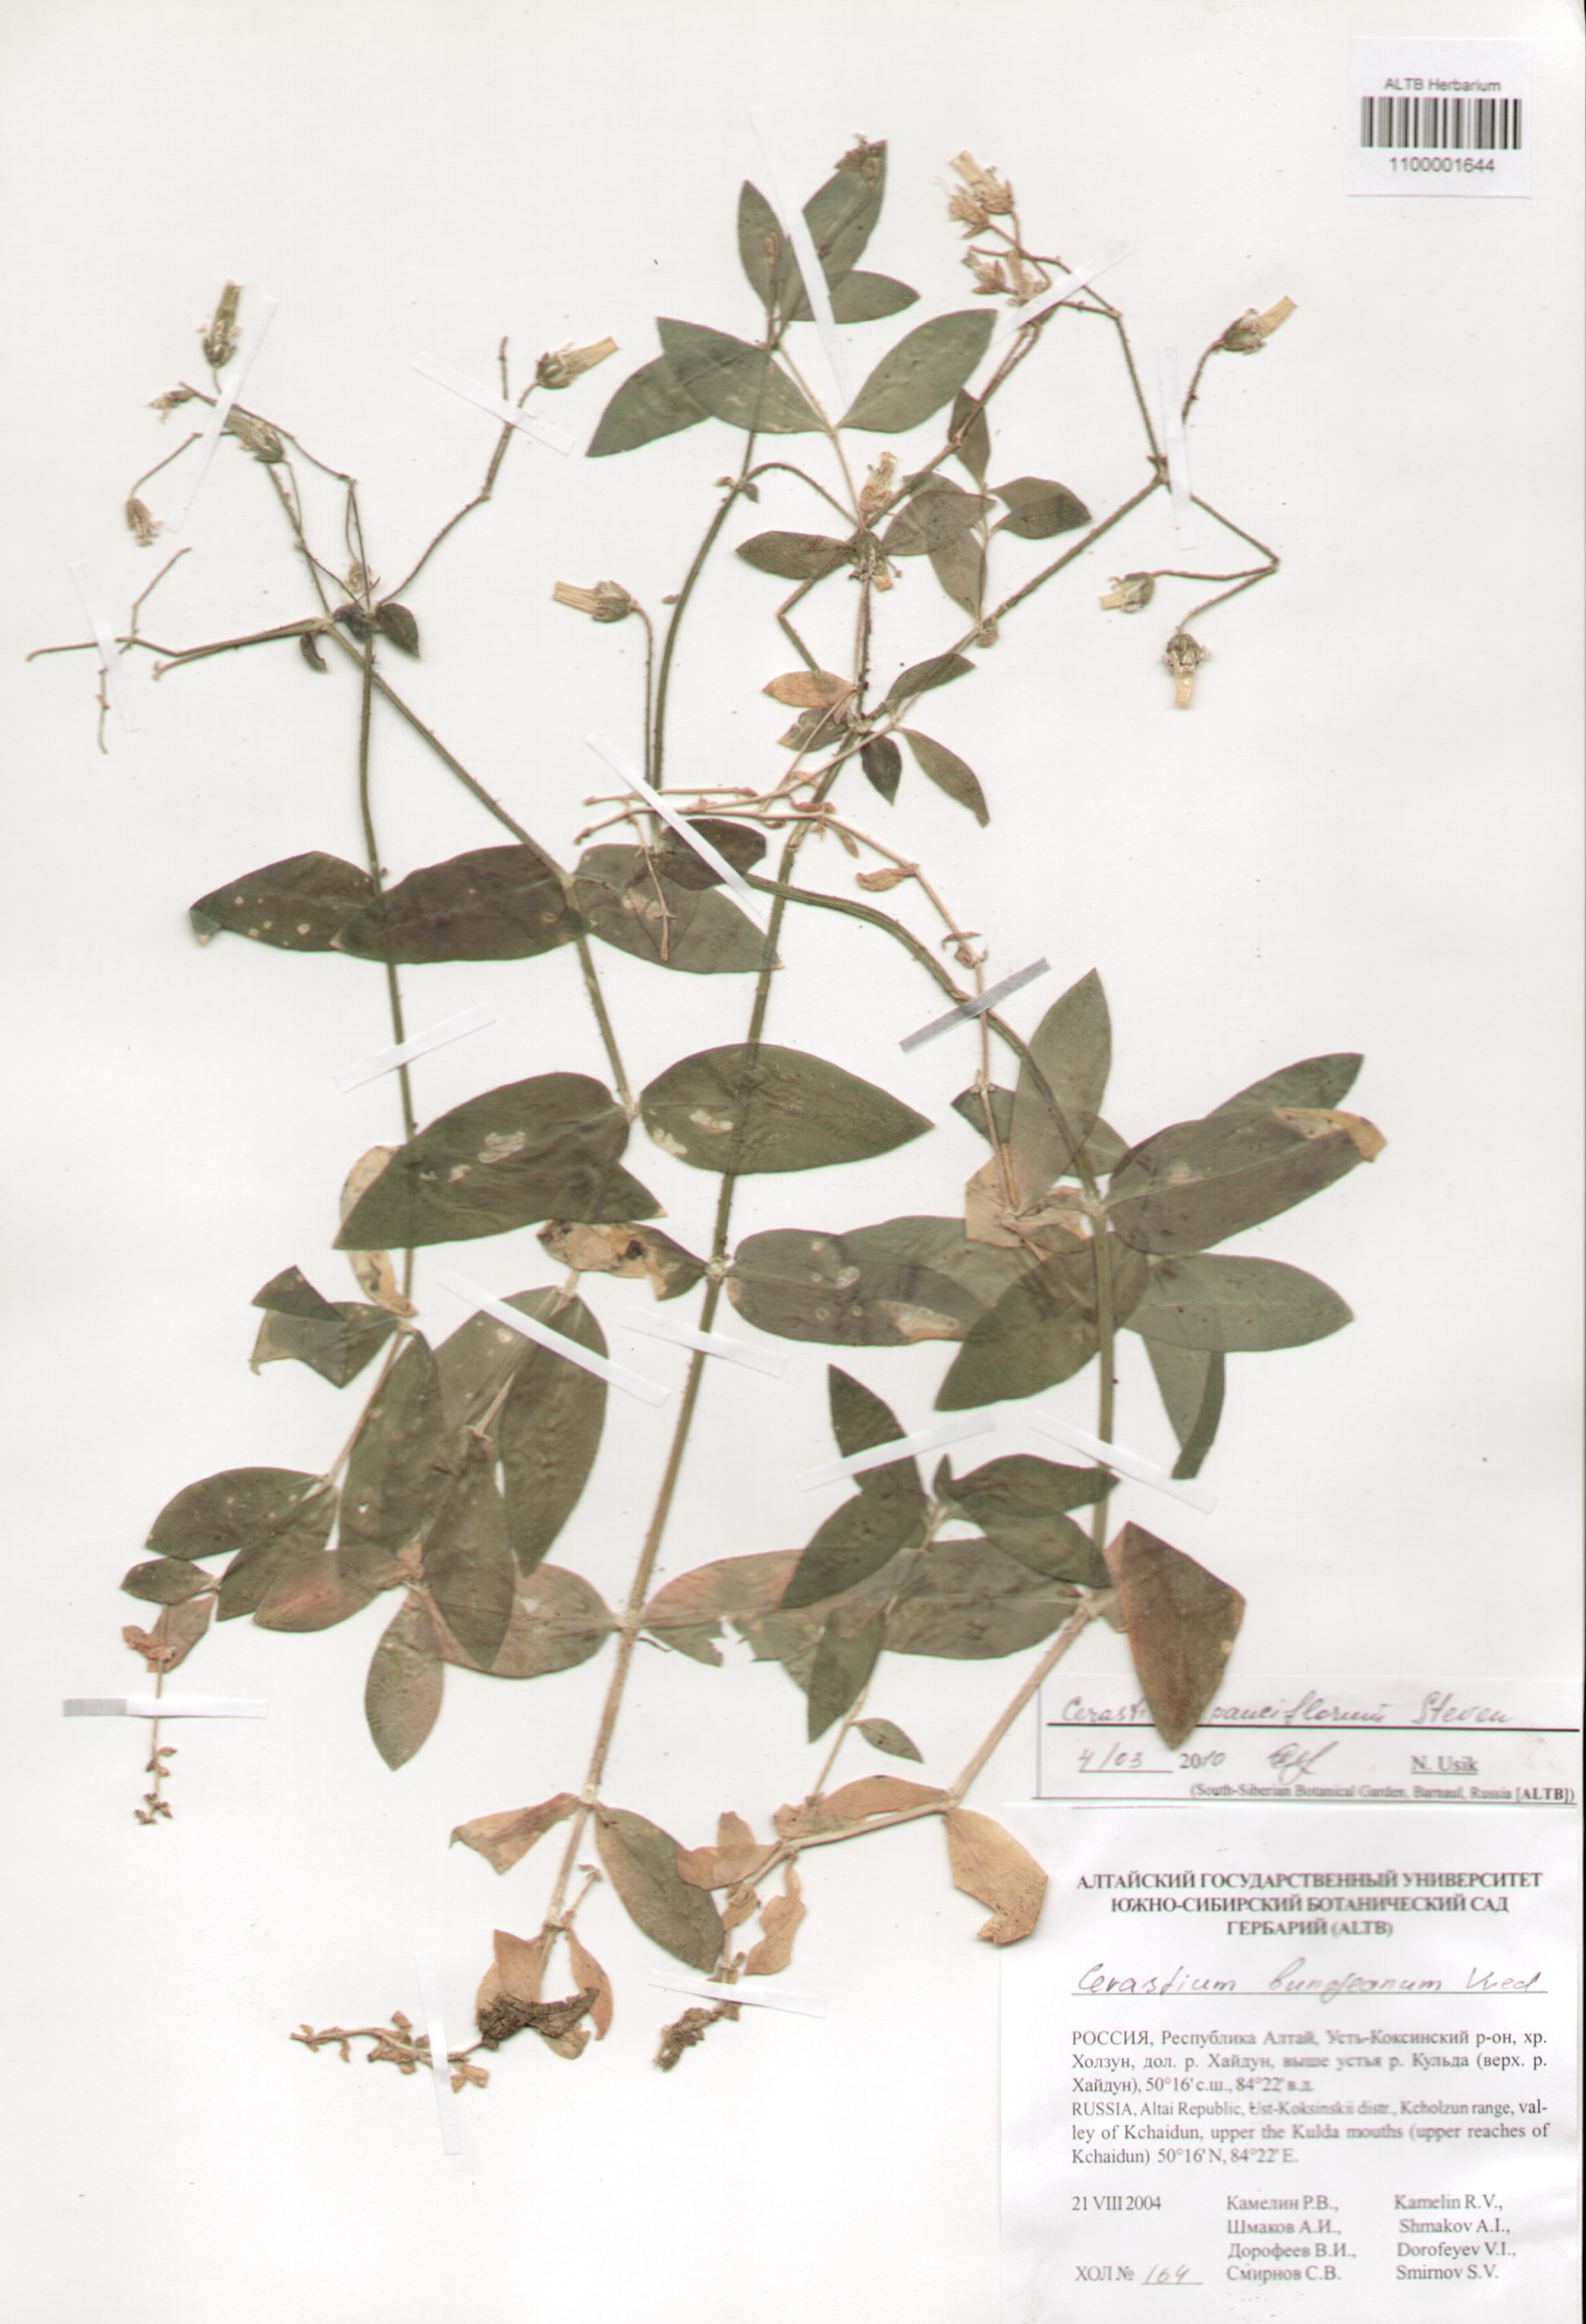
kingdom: Plantae
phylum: Tracheophyta
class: Magnoliopsida
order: Caryophyllales
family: Caryophyllaceae
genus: Cerastium
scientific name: Cerastium pauciflorum
